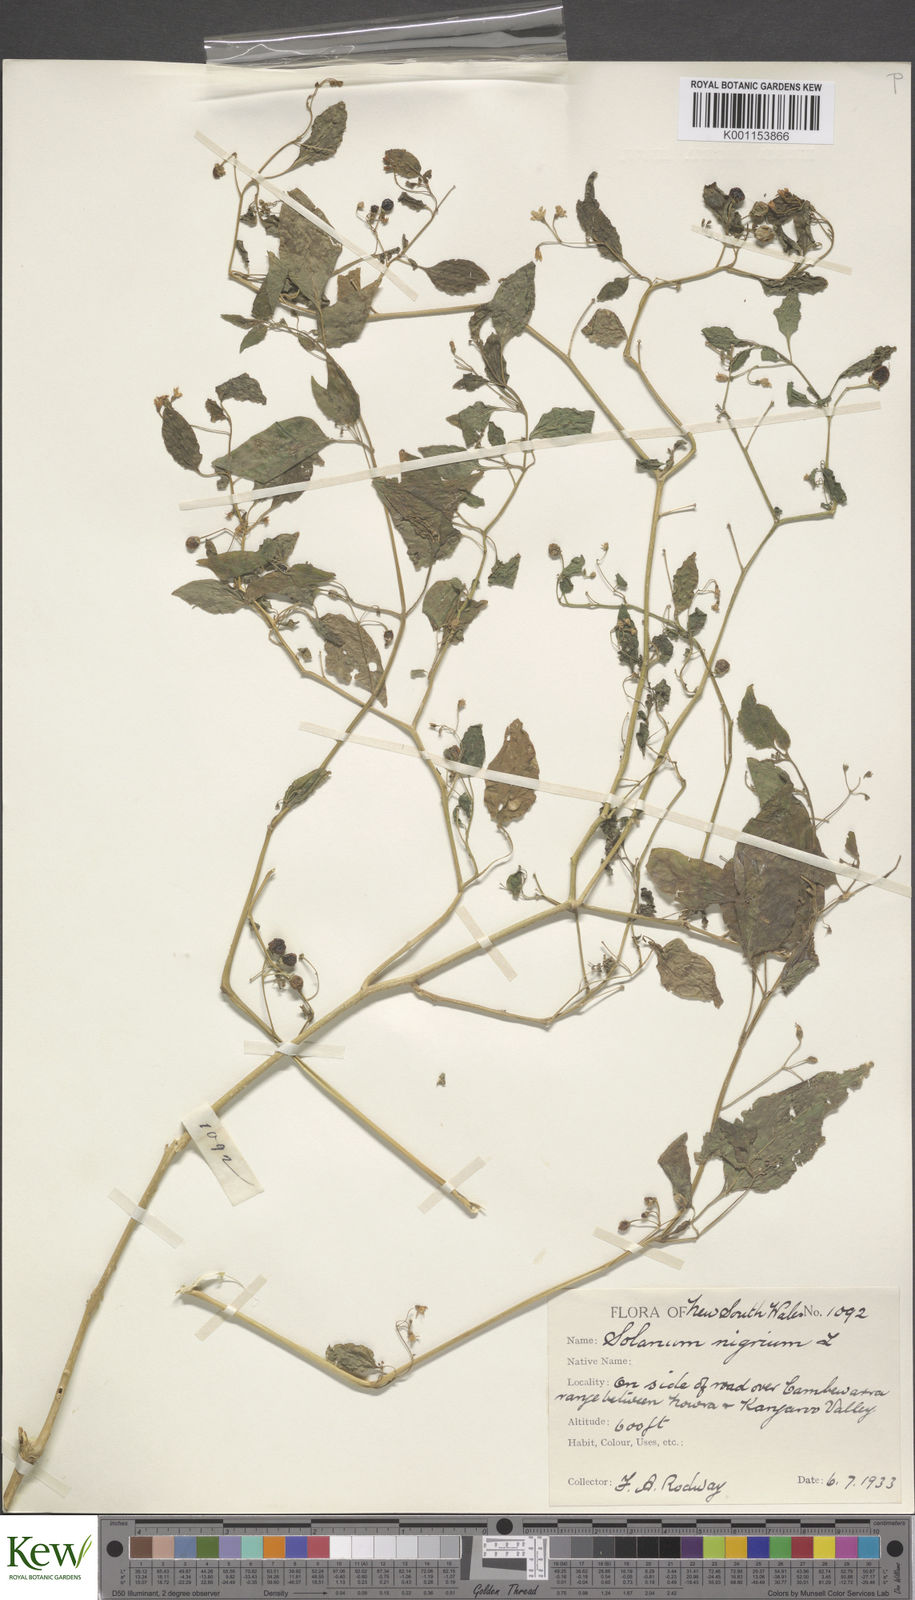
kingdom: Plantae
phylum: Tracheophyta
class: Magnoliopsida
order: Solanales
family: Solanaceae
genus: Solanum
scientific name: Solanum americanum
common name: American black nightshade
